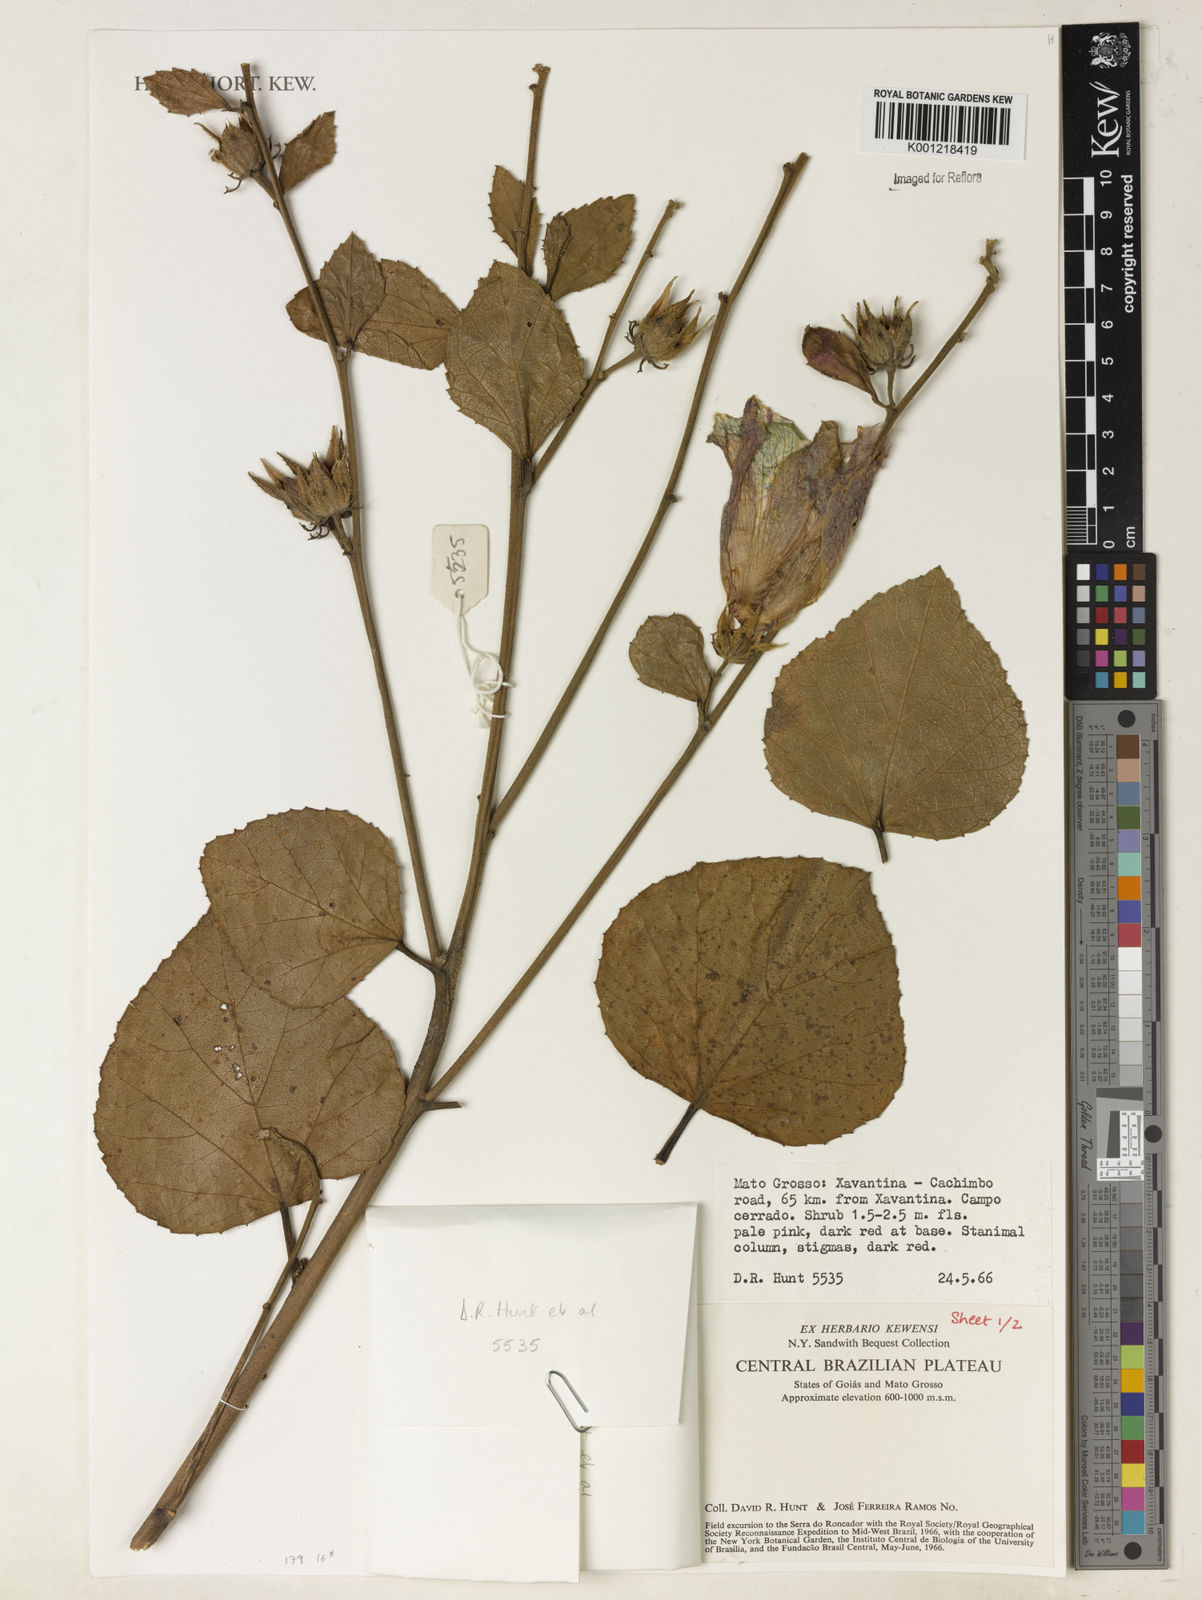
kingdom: Plantae
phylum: Tracheophyta
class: Magnoliopsida
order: Malvales
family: Malvaceae
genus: Hibiscus
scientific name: Hibiscus
